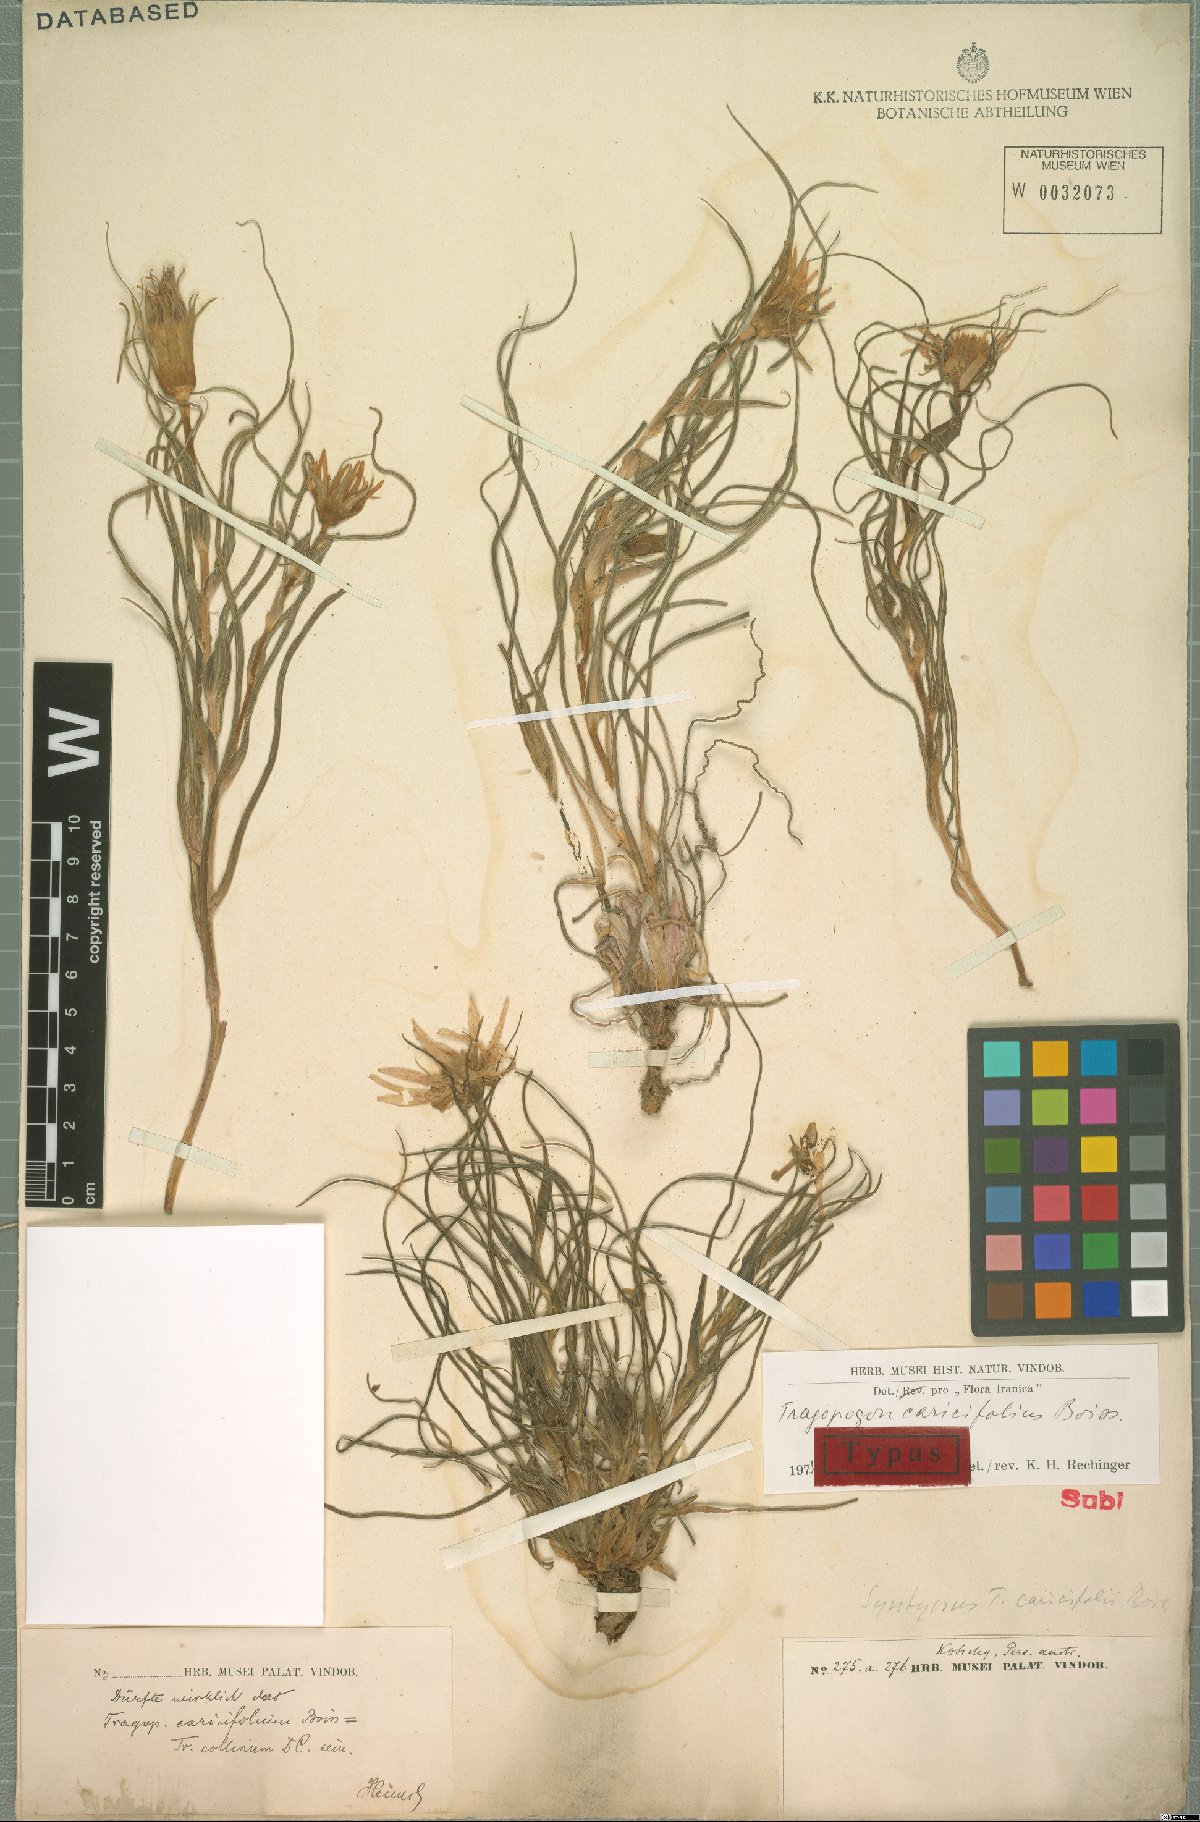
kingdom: Plantae
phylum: Tracheophyta
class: Magnoliopsida
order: Asterales
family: Asteraceae
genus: Tragopogon
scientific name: Tragopogon caricifolius
